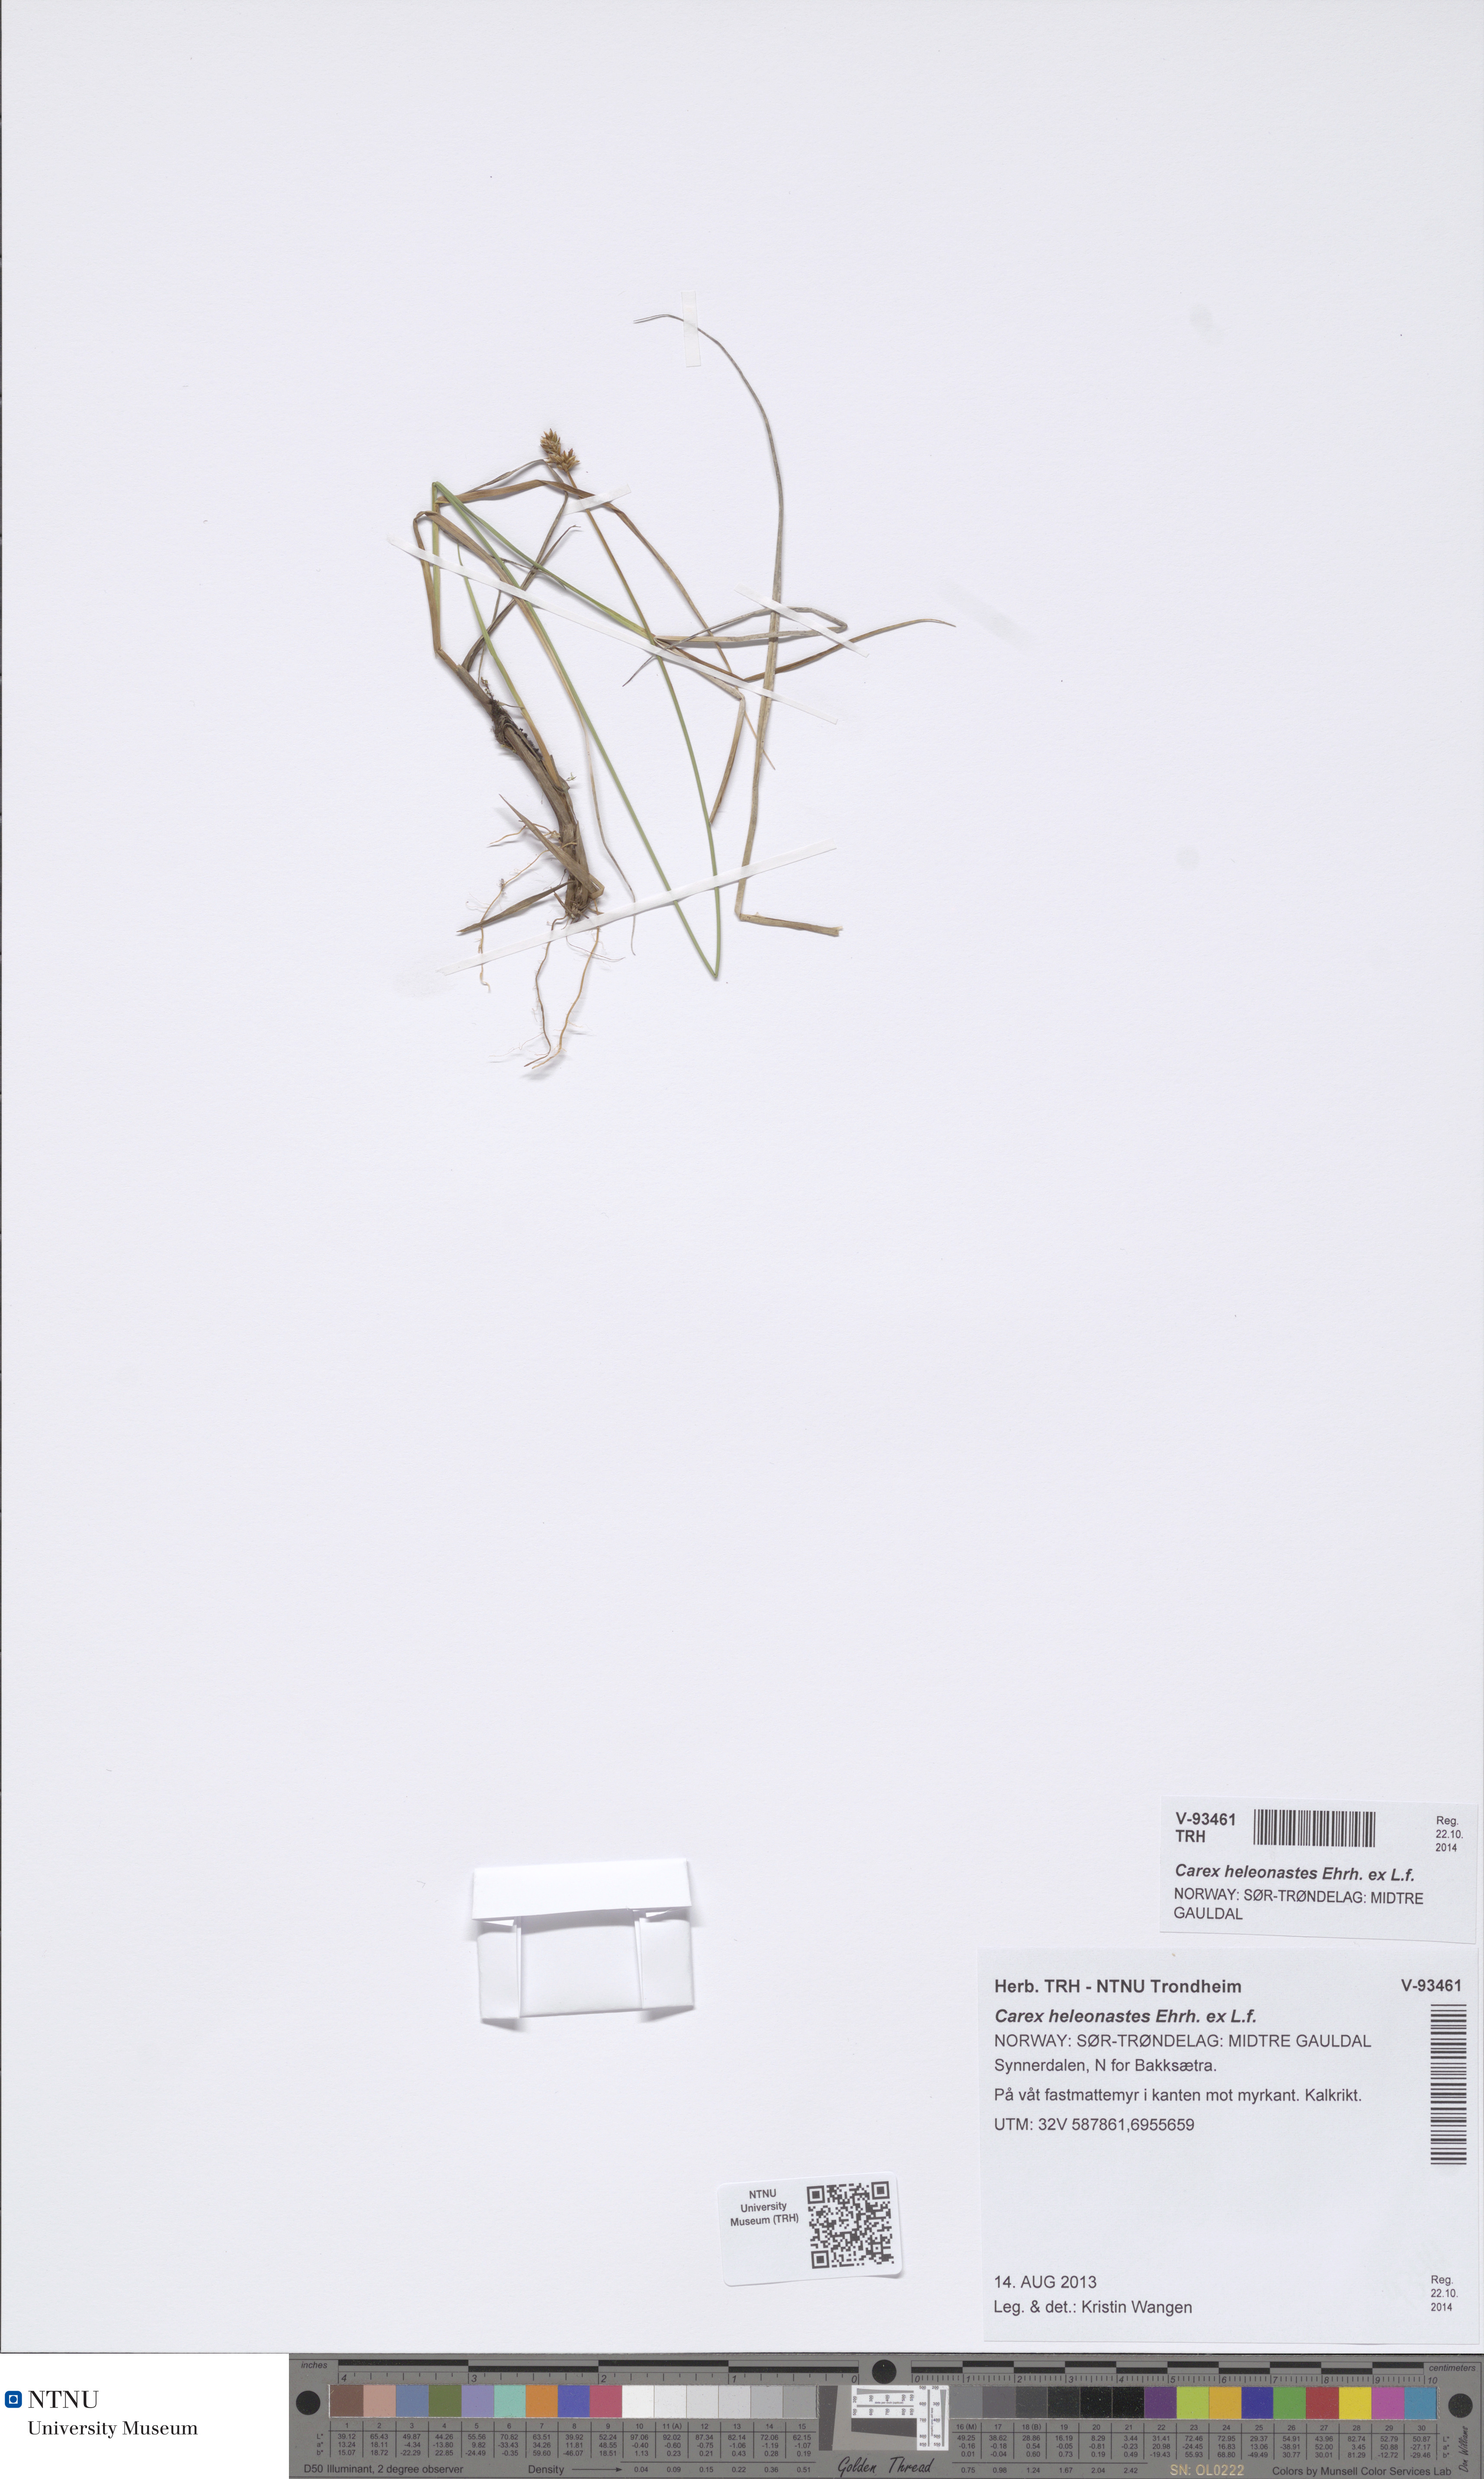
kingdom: Plantae
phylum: Tracheophyta
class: Liliopsida
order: Poales
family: Cyperaceae
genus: Carex
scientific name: Carex heleonastes
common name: Hudson bay sedge
